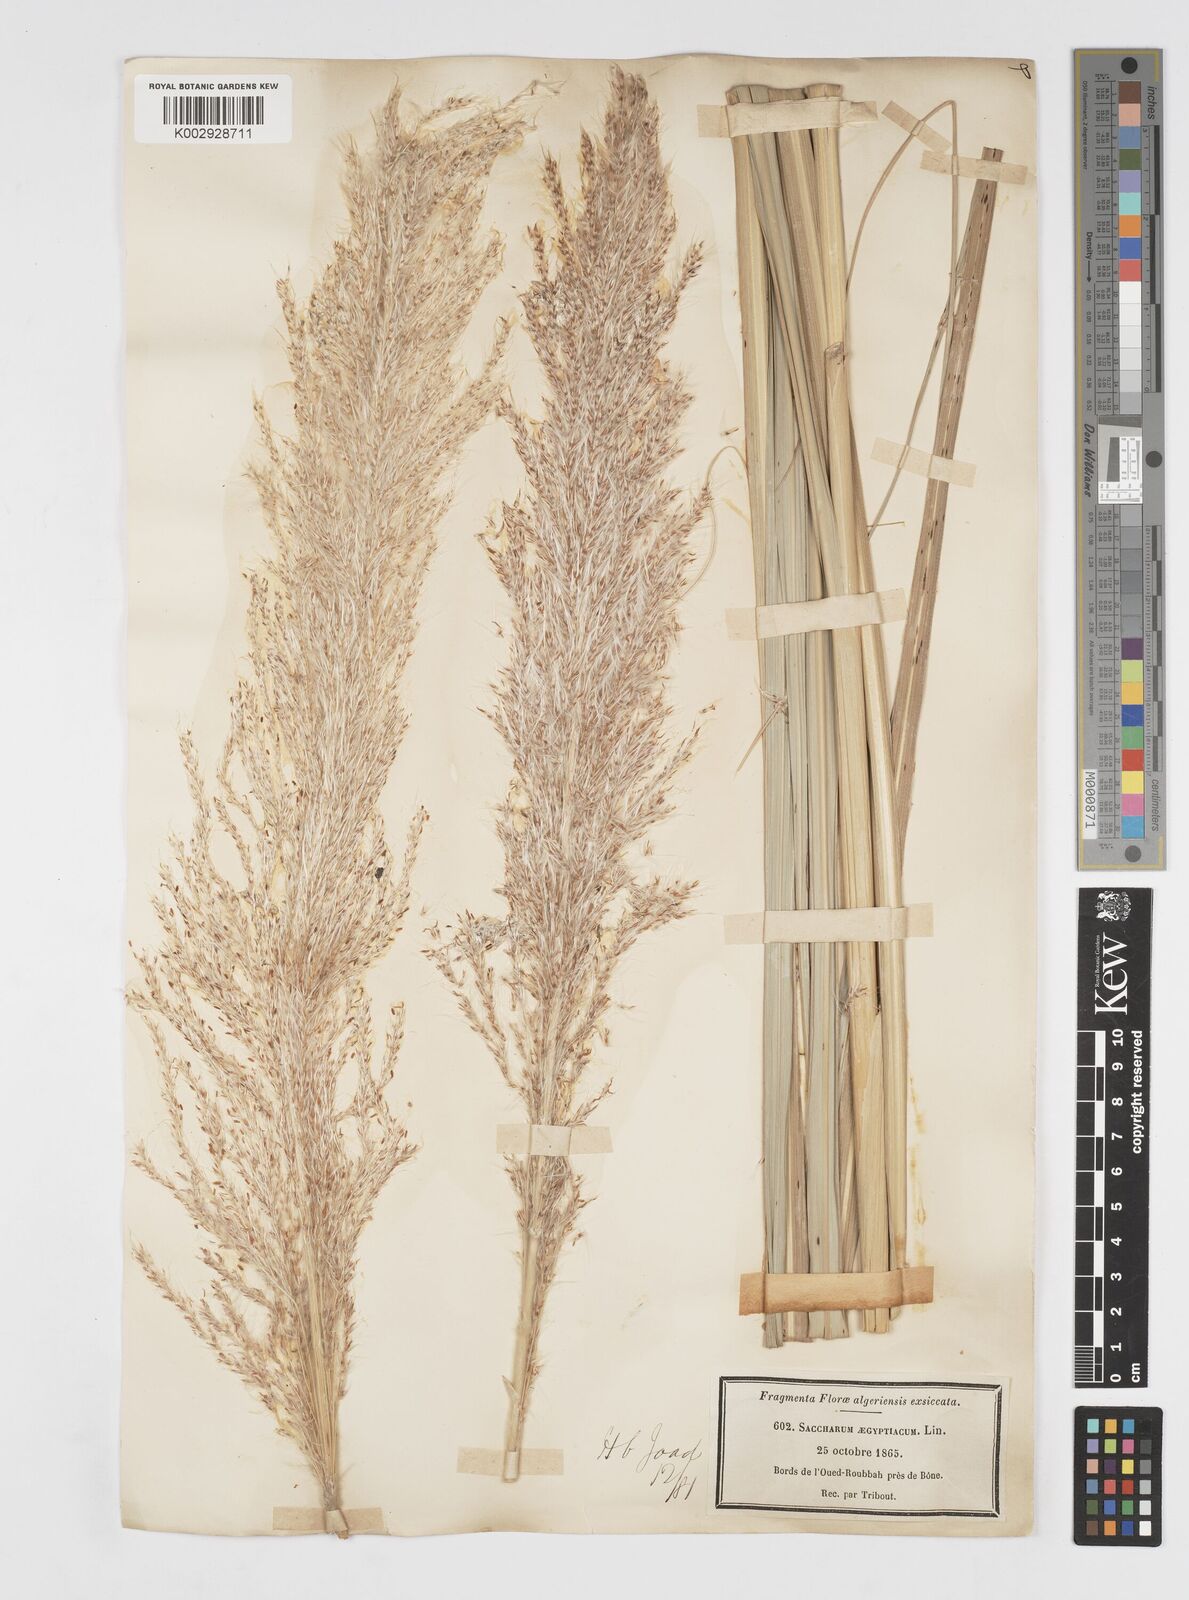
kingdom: Plantae
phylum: Tracheophyta
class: Liliopsida
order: Poales
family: Poaceae
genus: Saccharum
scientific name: Saccharum spontaneum
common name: Wild sugarcane
